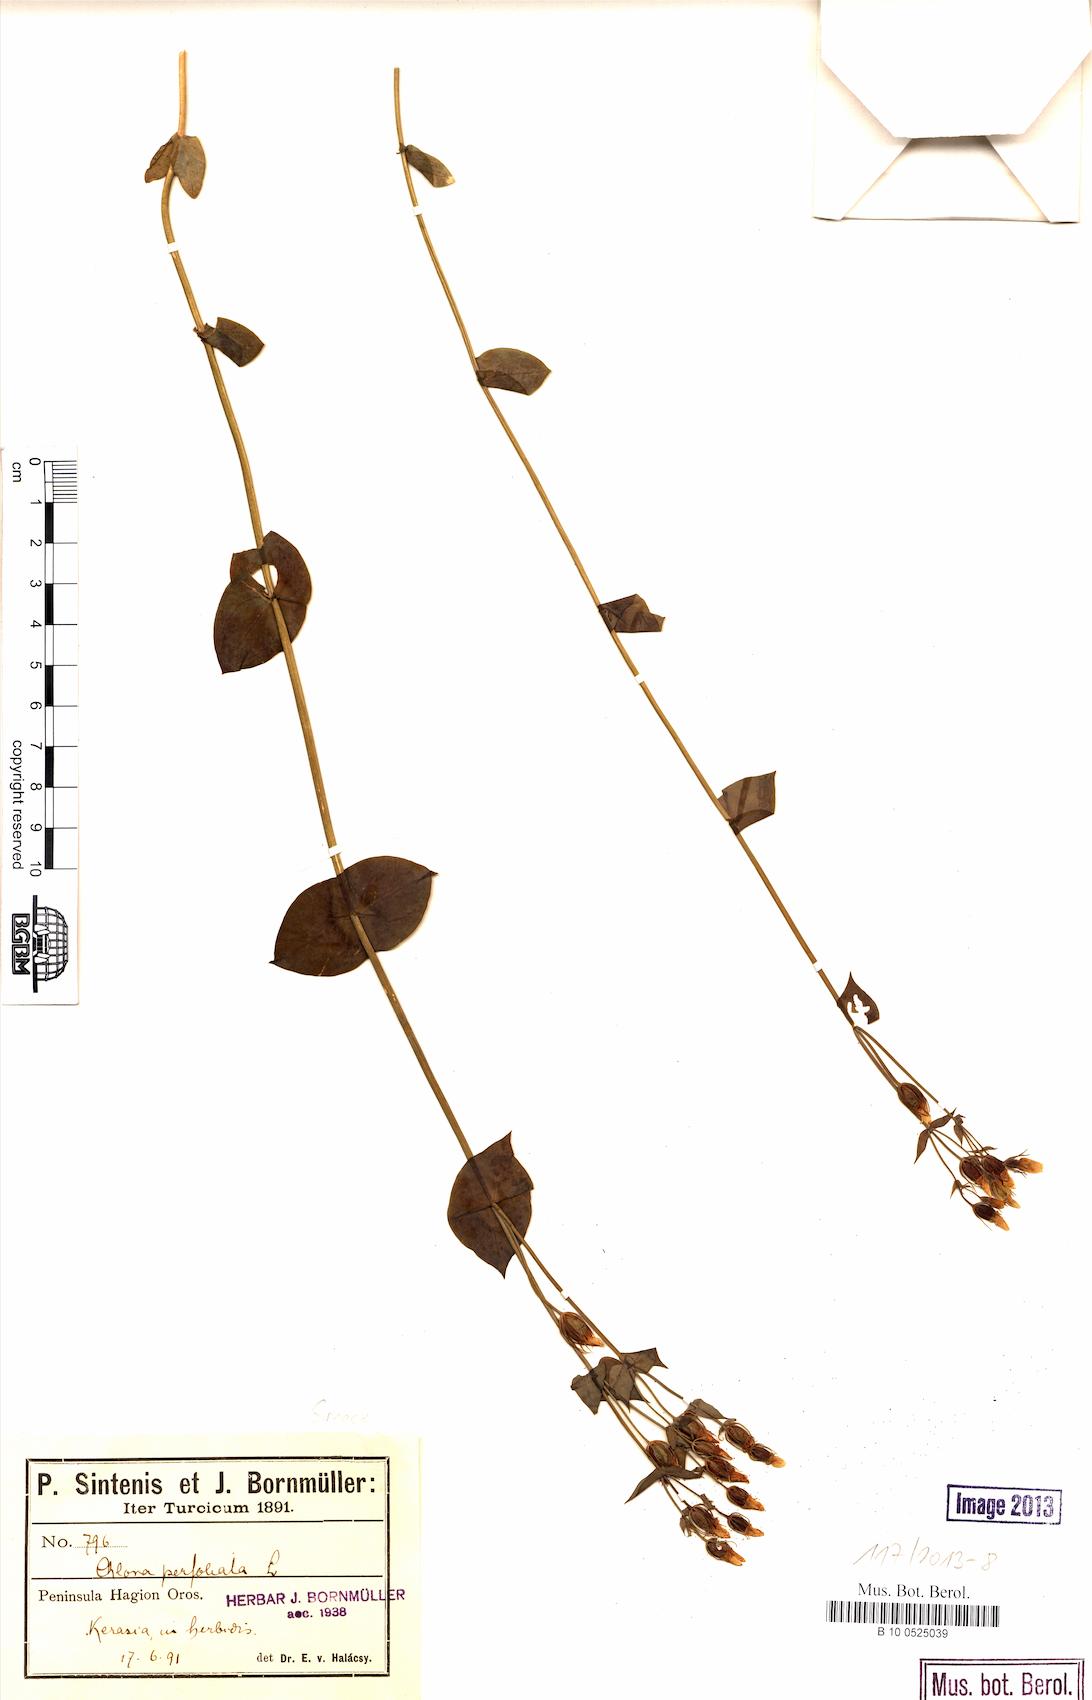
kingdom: Plantae
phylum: Tracheophyta
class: Magnoliopsida
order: Gentianales
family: Gentianaceae
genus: Blackstonia
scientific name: Blackstonia perfoliata
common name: Yellow-wort
